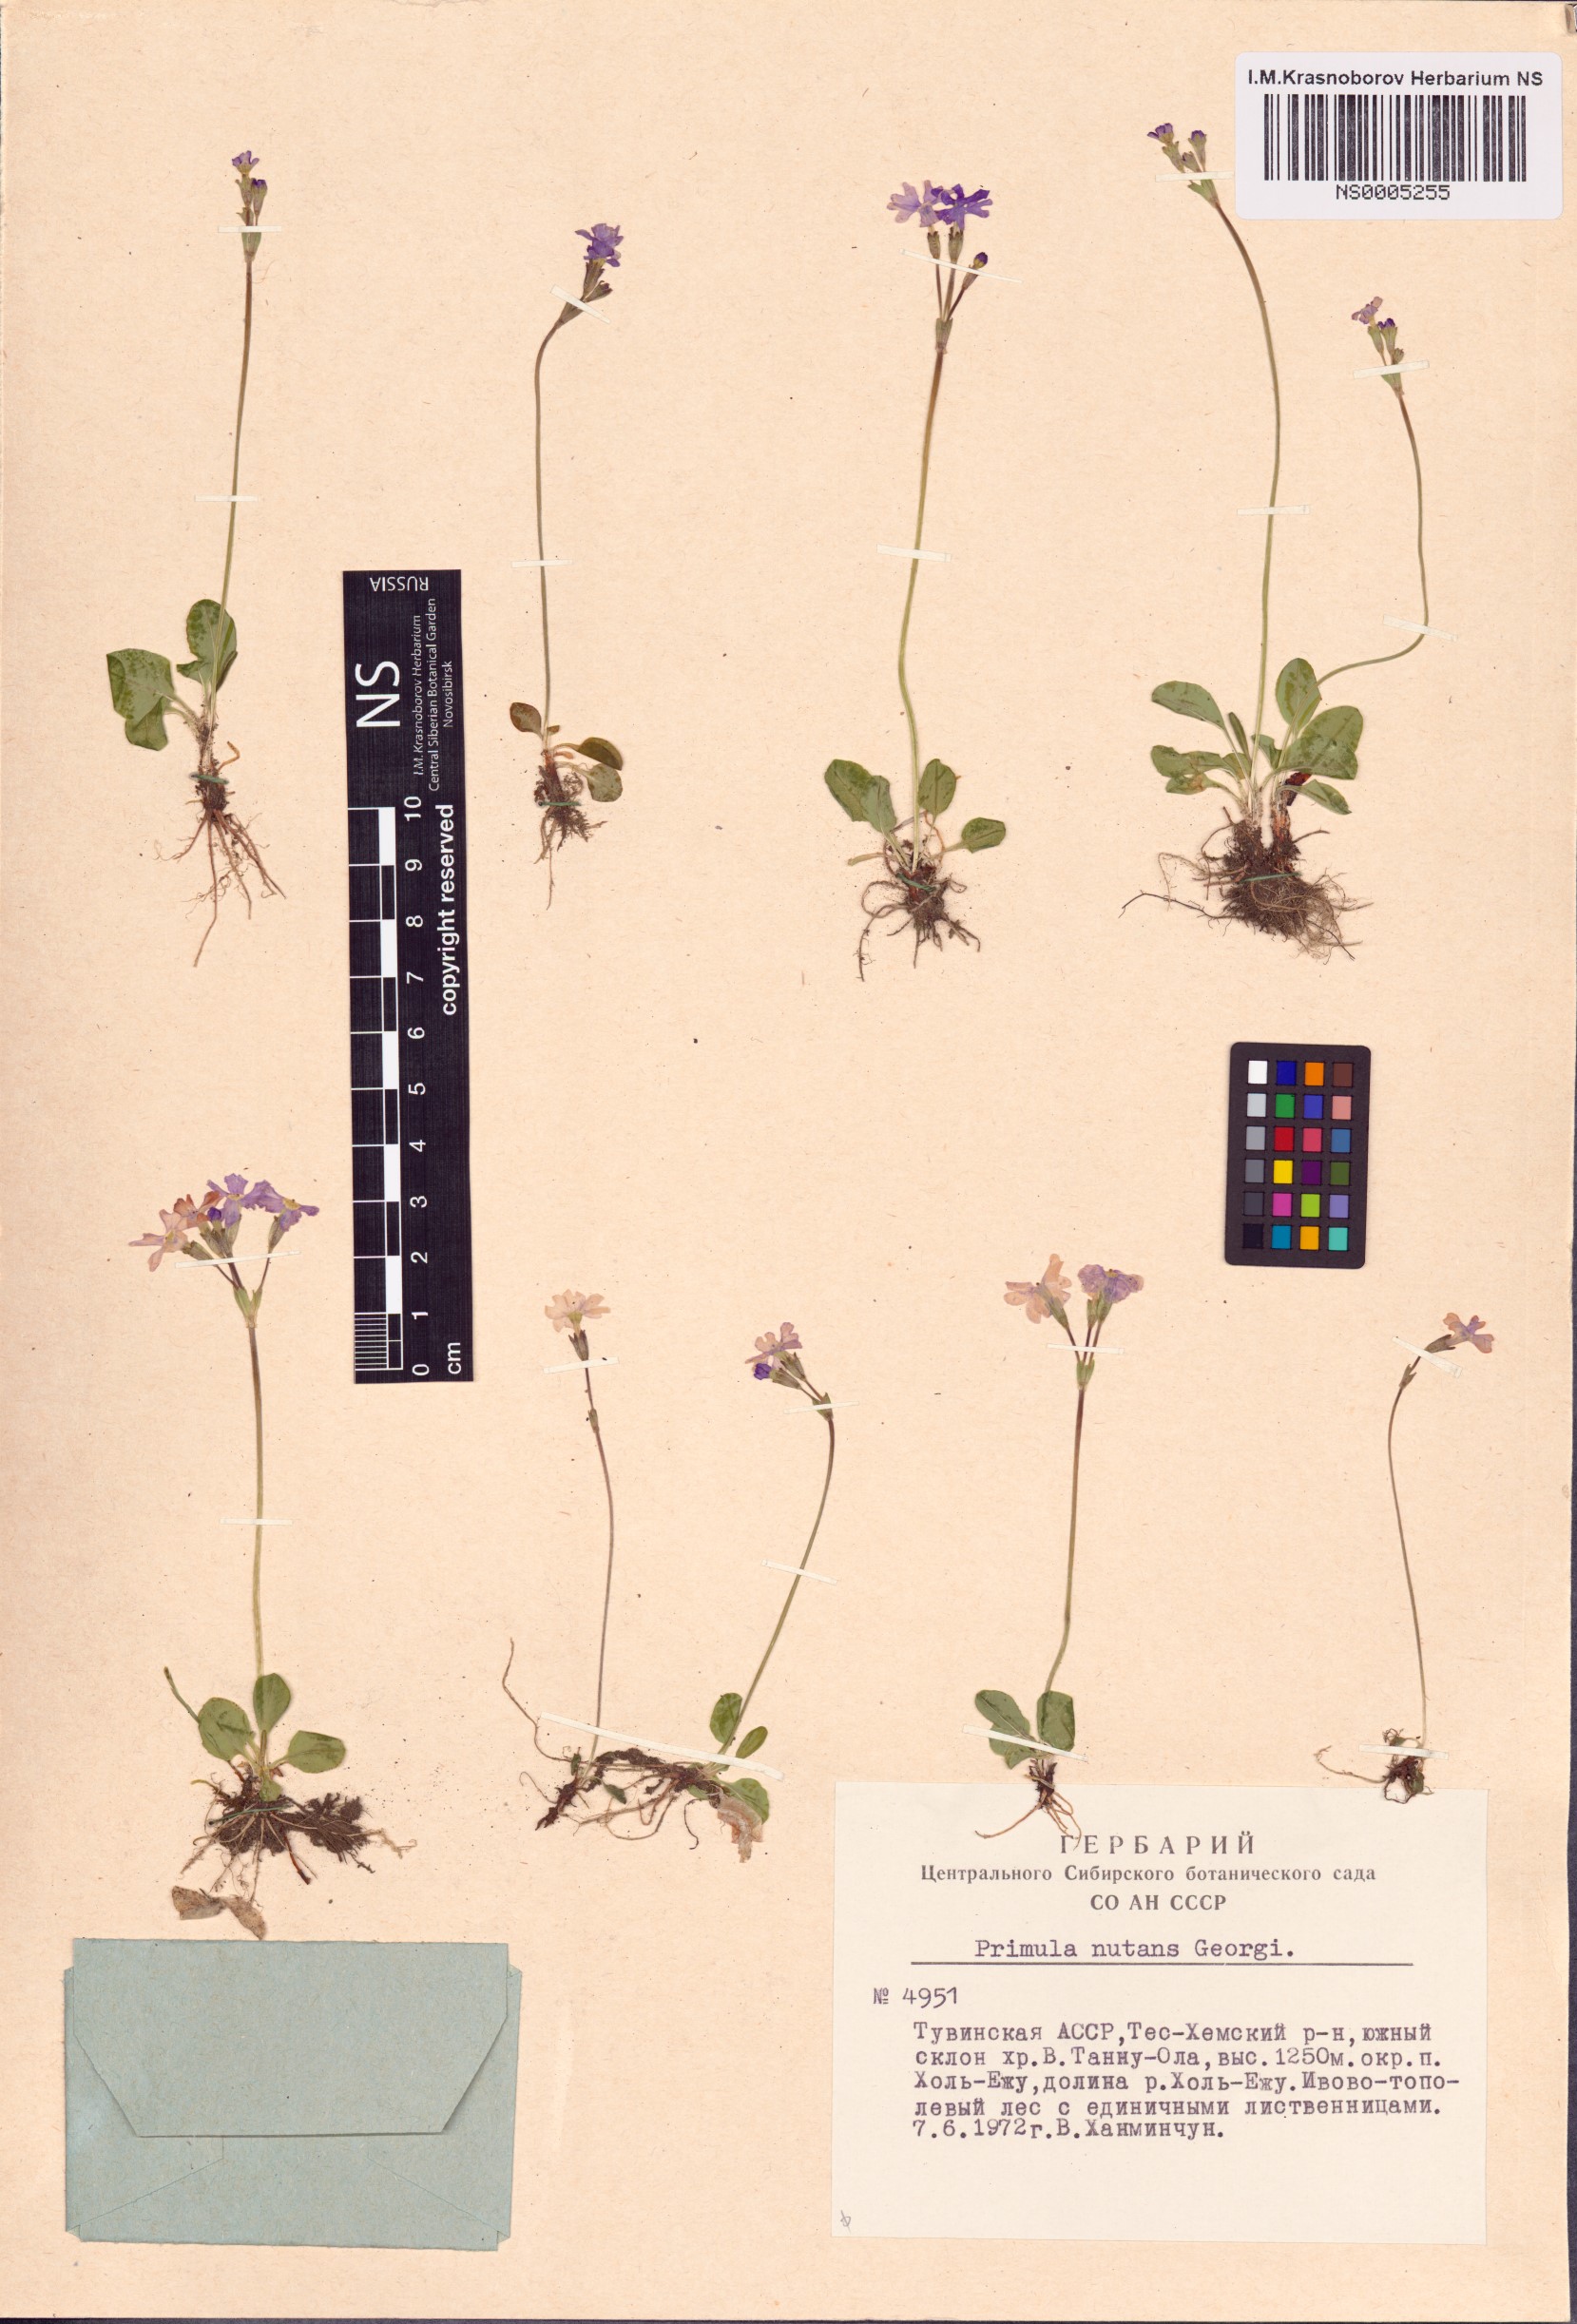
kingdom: Plantae
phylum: Tracheophyta
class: Magnoliopsida
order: Ericales
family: Primulaceae
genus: Primula
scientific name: Primula nutans
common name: Siberian primrose
